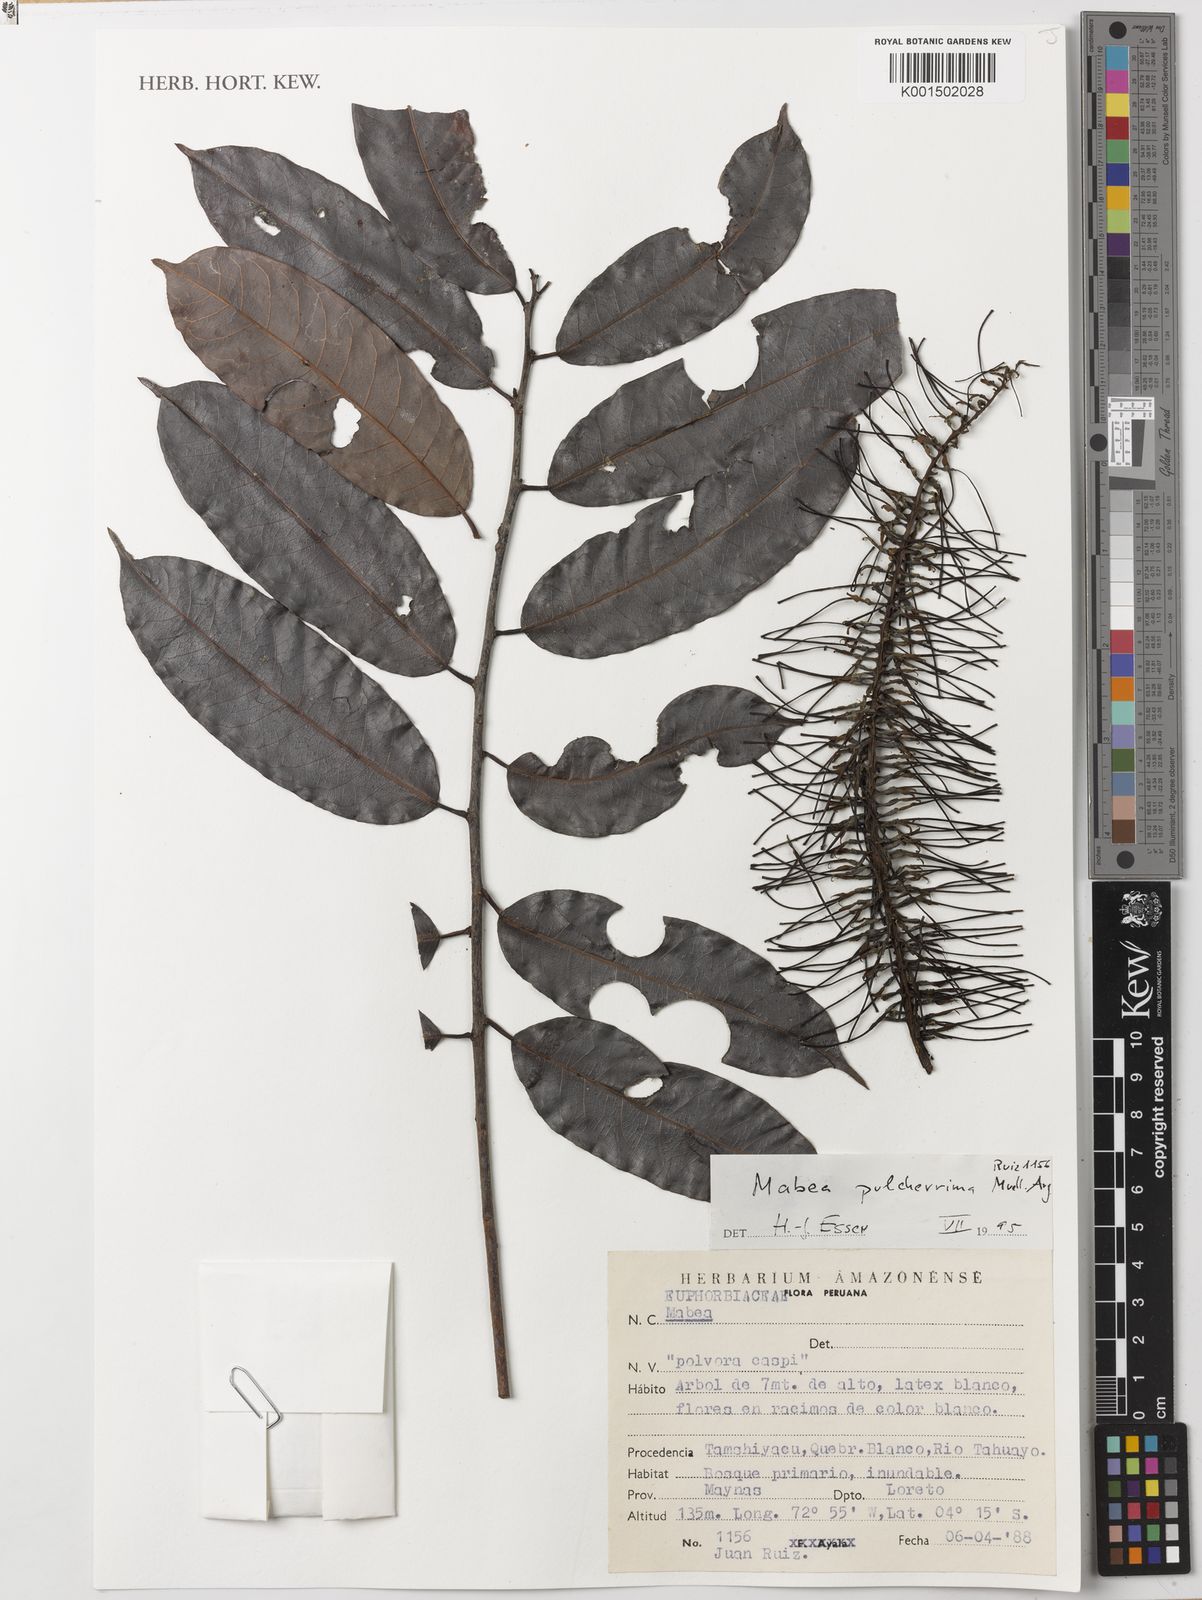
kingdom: Plantae
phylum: Tracheophyta
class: Magnoliopsida
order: Malpighiales
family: Euphorbiaceae
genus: Mabea
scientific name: Mabea pulcherrima
